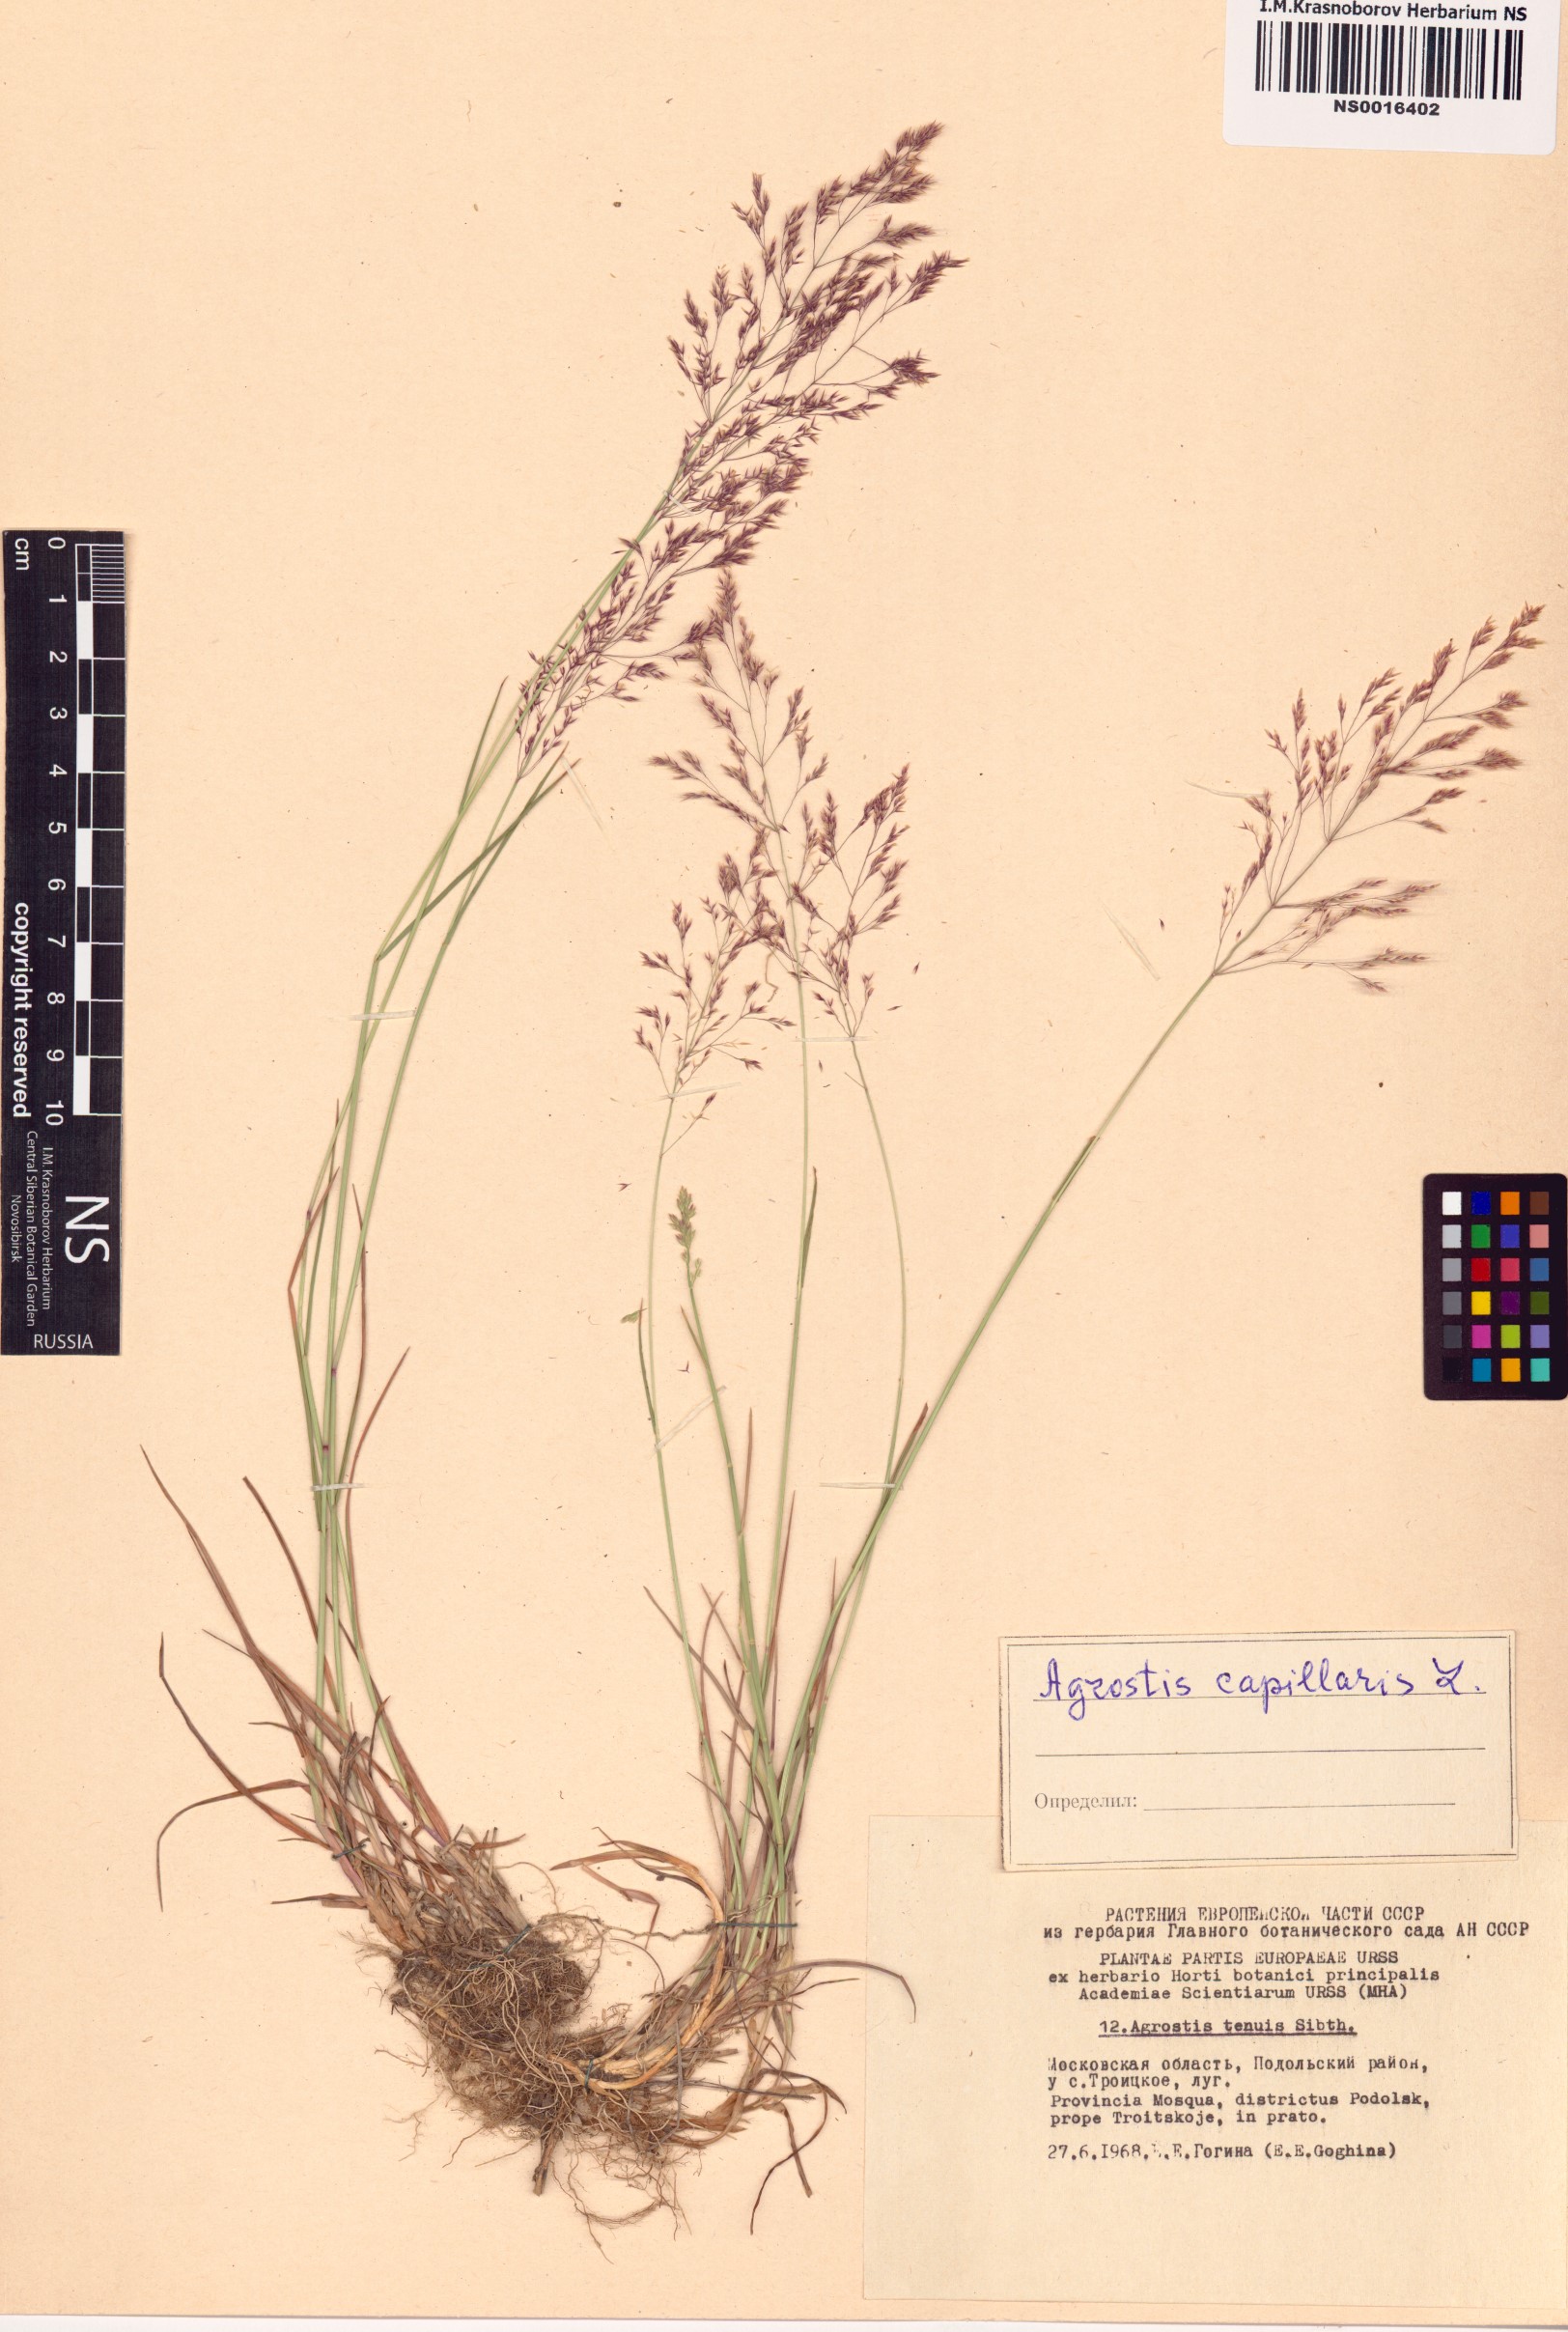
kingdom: Plantae
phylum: Tracheophyta
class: Liliopsida
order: Poales
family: Poaceae
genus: Agrostis
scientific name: Agrostis capillaris
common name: Colonial bentgrass
